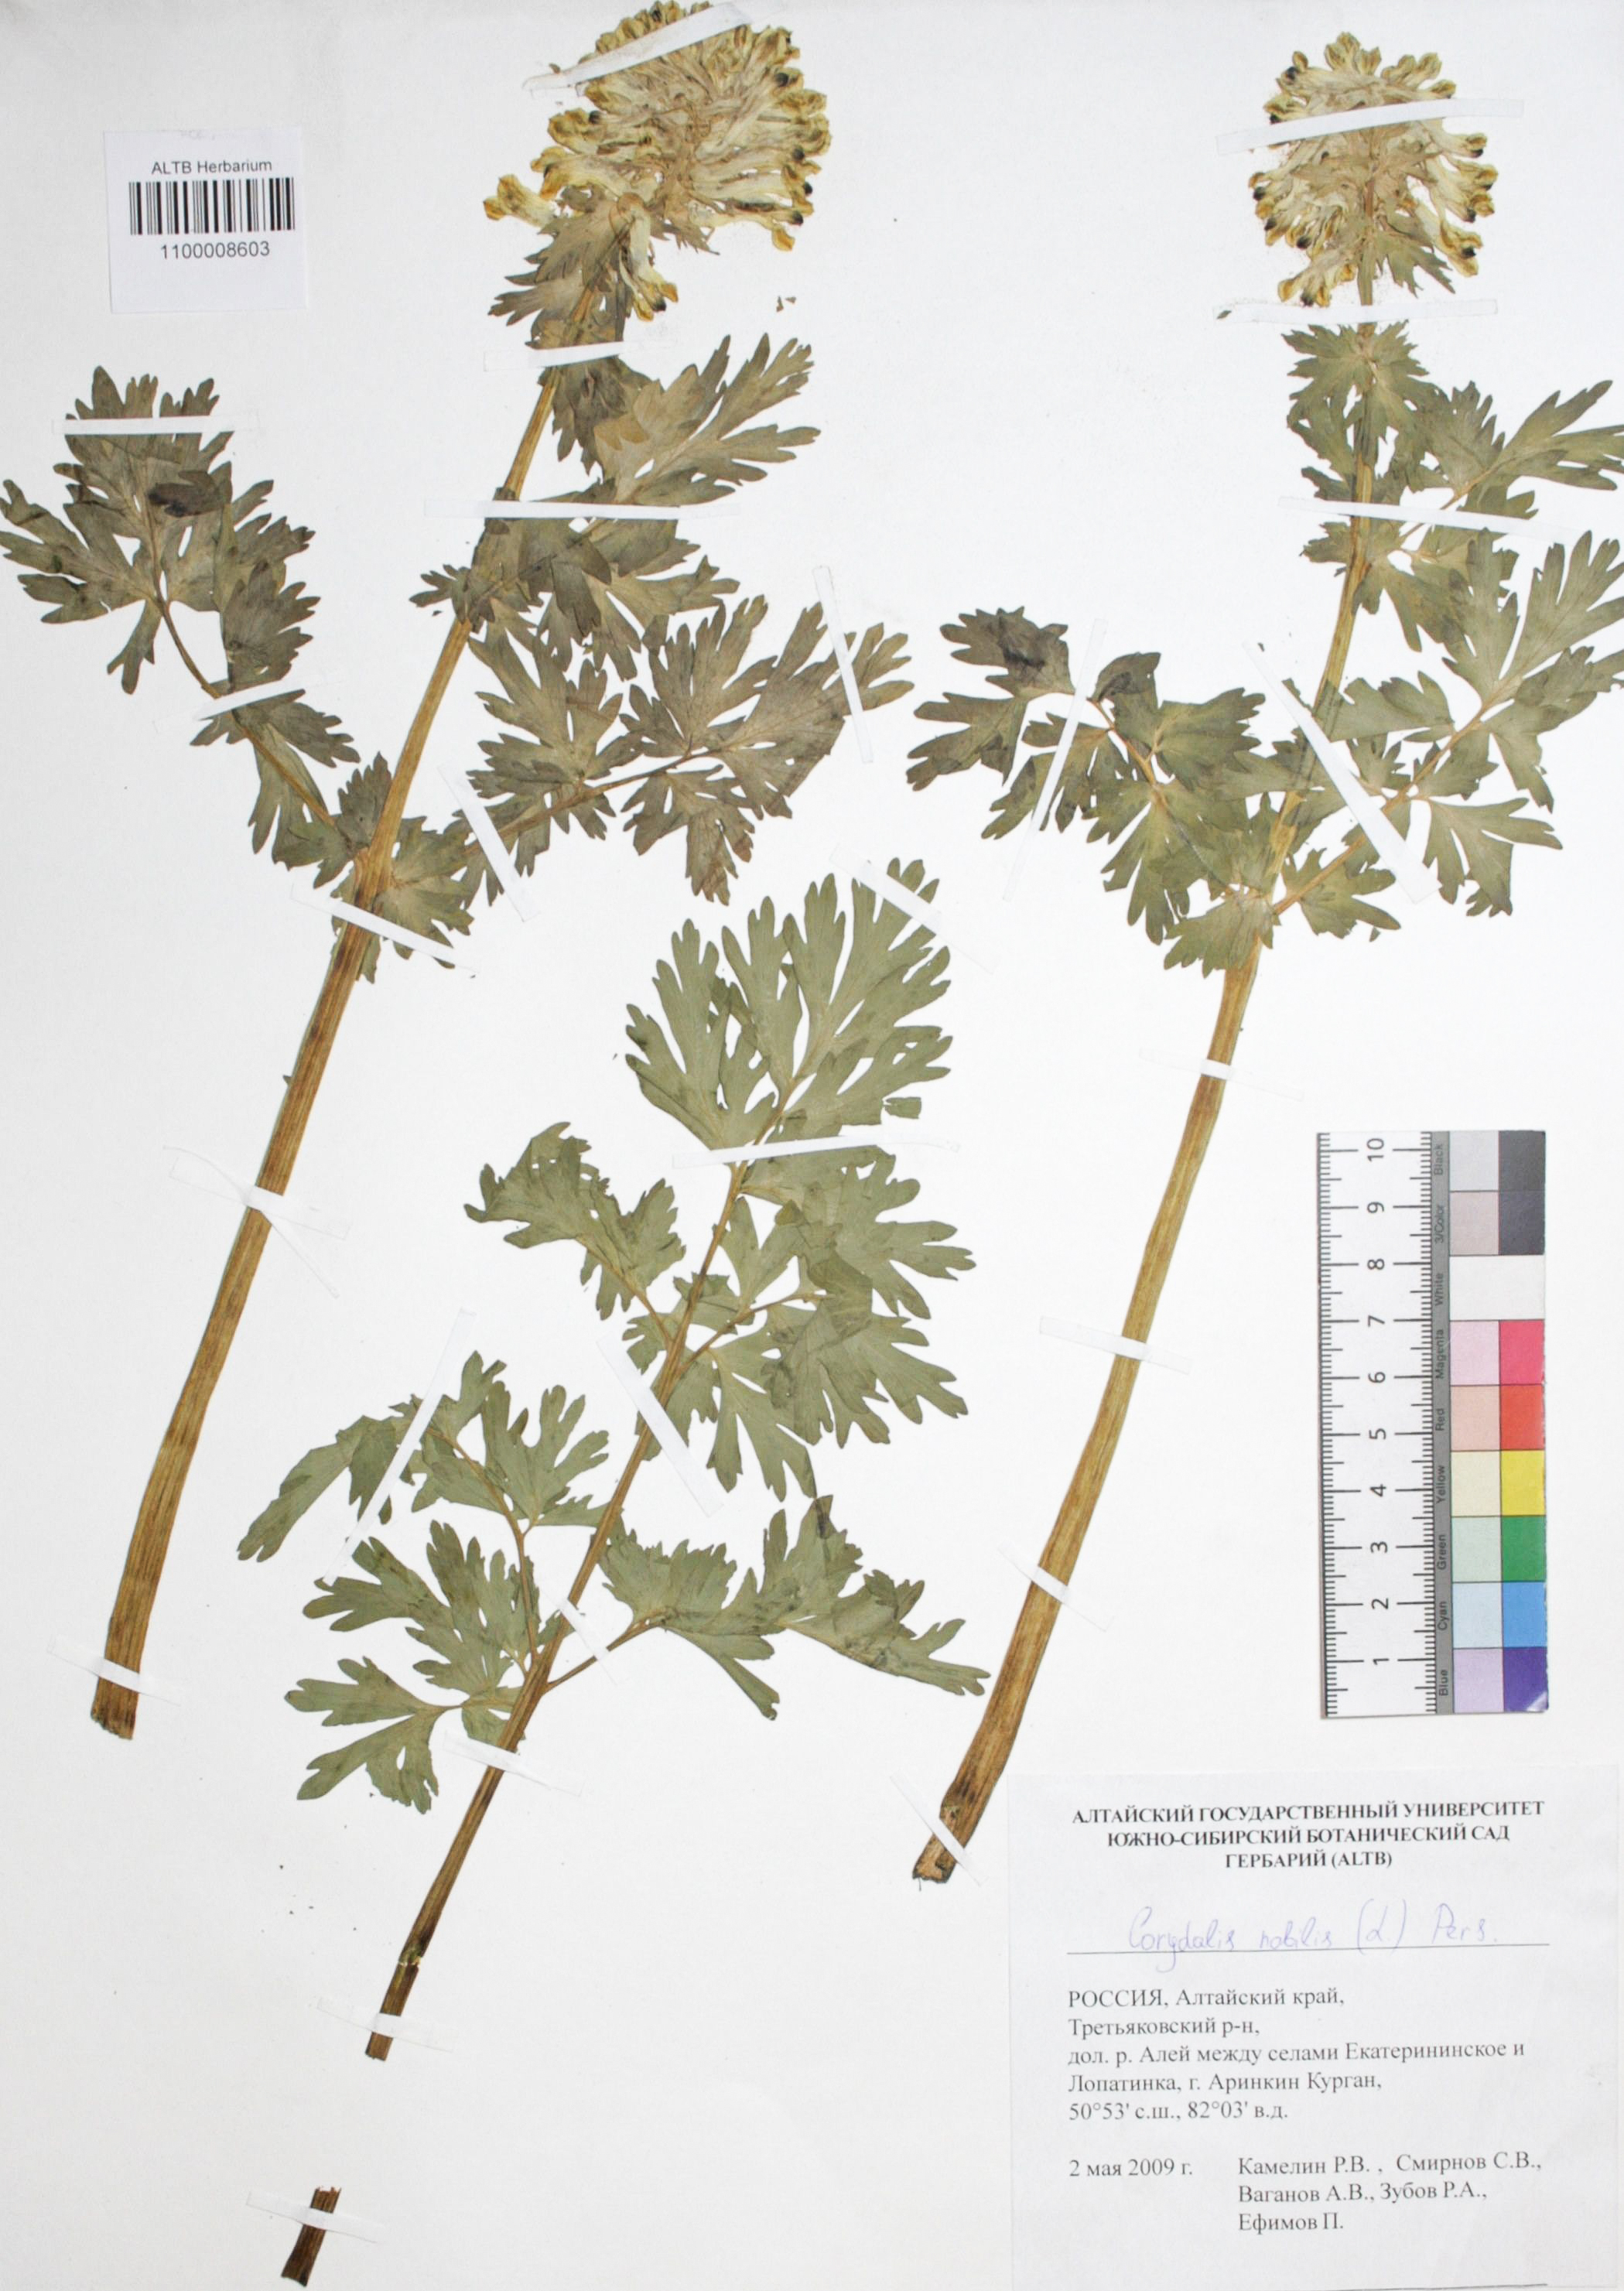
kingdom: Plantae
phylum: Tracheophyta
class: Magnoliopsida
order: Ranunculales
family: Papaveraceae
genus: Corydalis
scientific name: Corydalis nobilis
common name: Siberian corydalis
